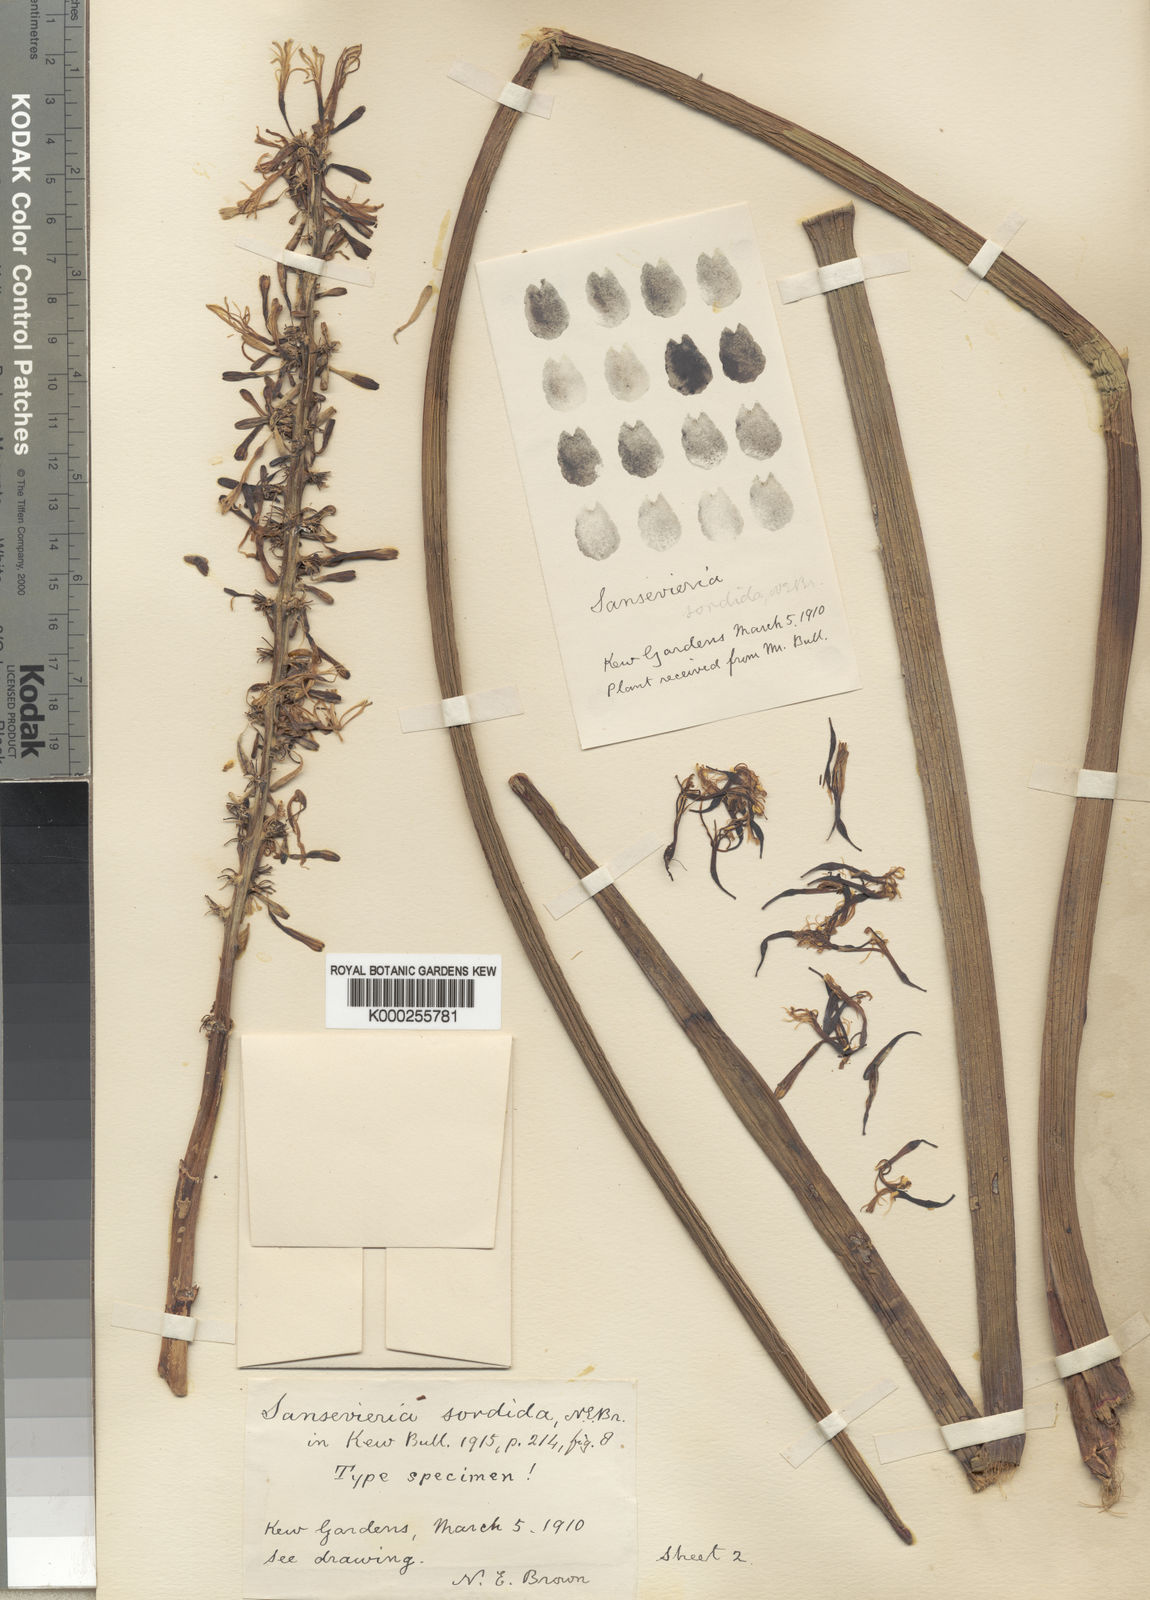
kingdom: Plantae
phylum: Tracheophyta
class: Liliopsida
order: Asparagales
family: Asparagaceae
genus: Dracaena
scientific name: Dracaena varians
